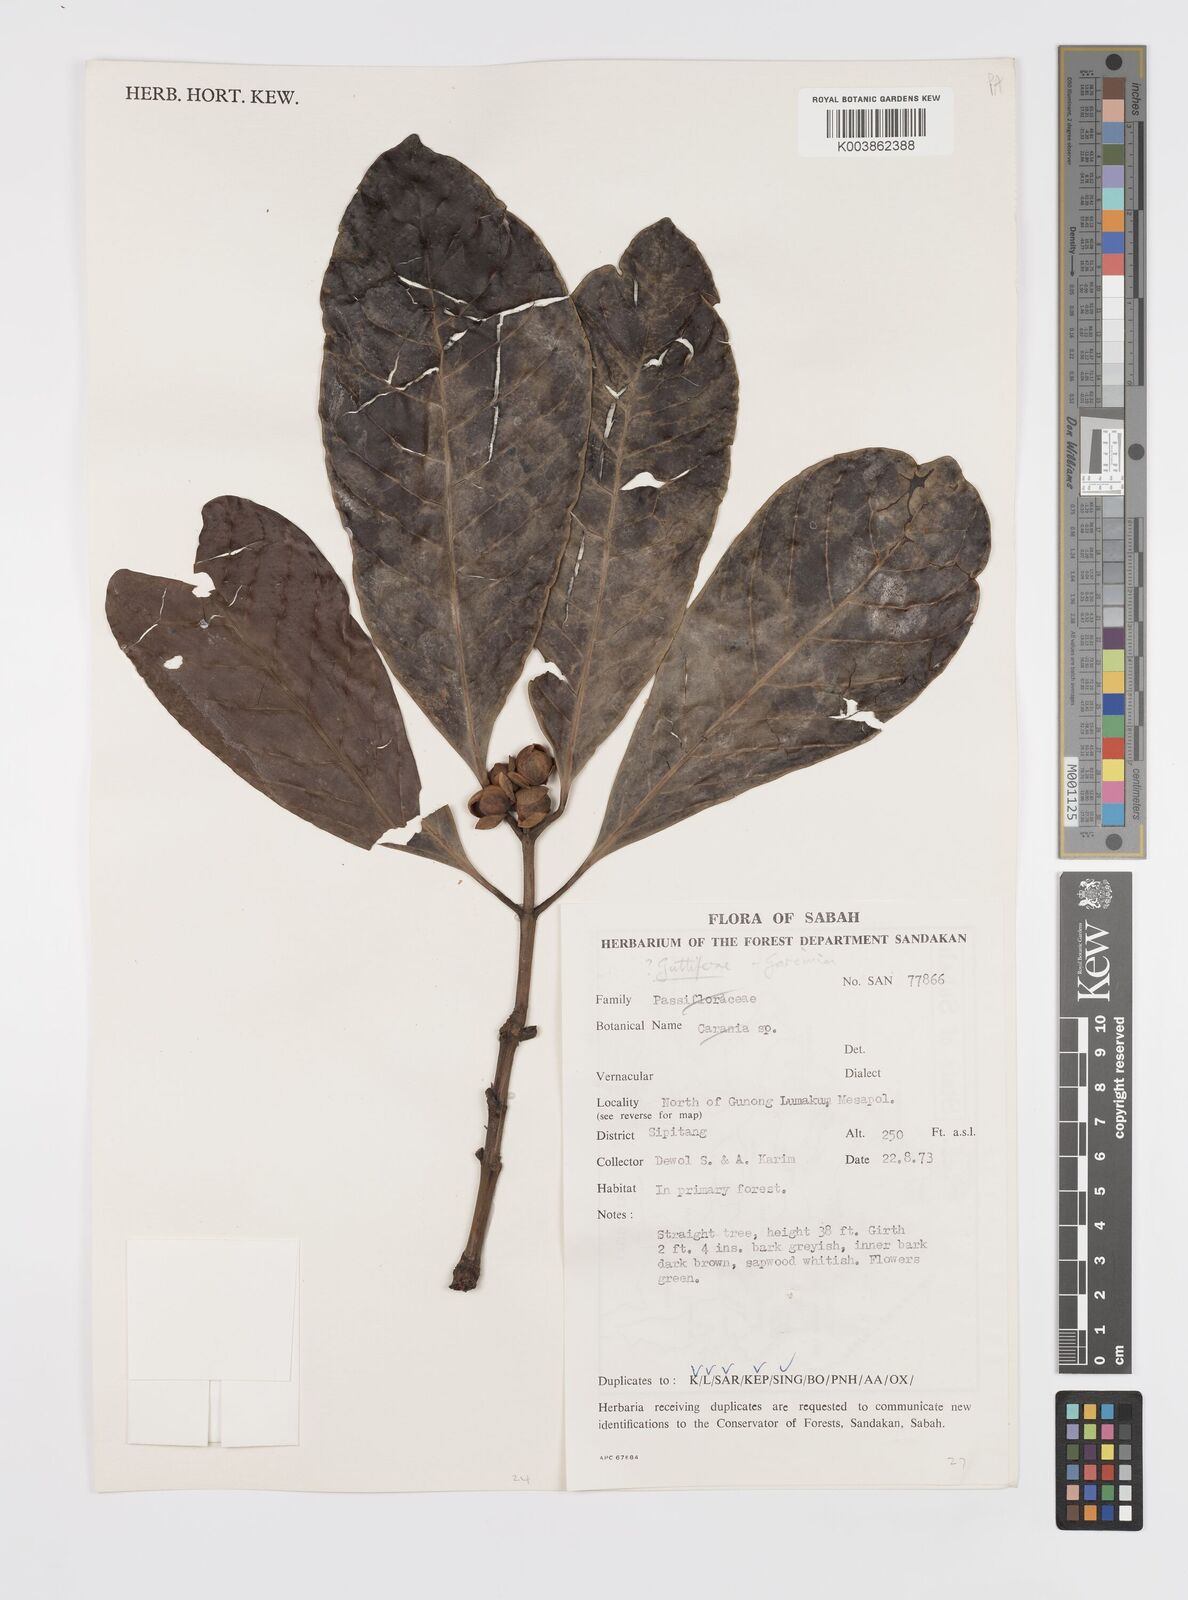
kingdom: Plantae
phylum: Tracheophyta
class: Magnoliopsida
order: Malpighiales
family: Clusiaceae
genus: Garcinia
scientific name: Garcinia
